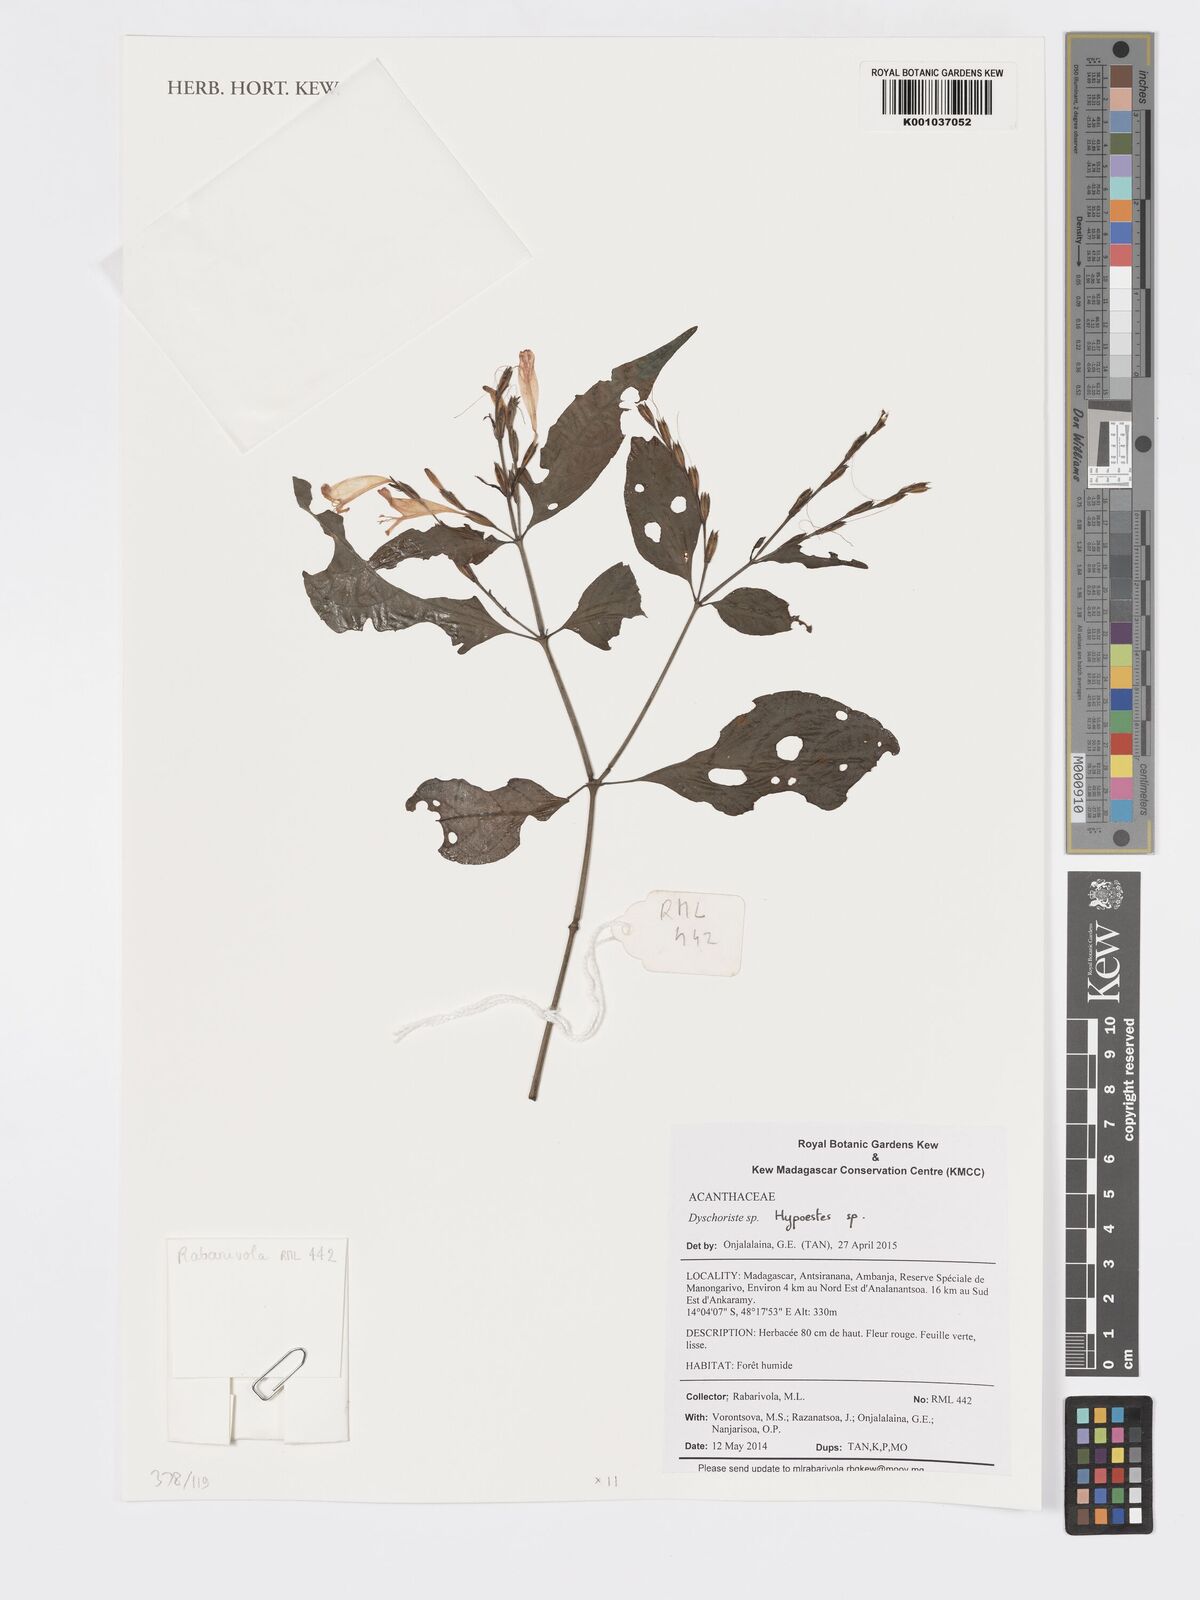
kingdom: Plantae
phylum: Tracheophyta
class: Magnoliopsida
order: Lamiales
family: Acanthaceae
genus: Hypoestes
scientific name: Hypoestes
